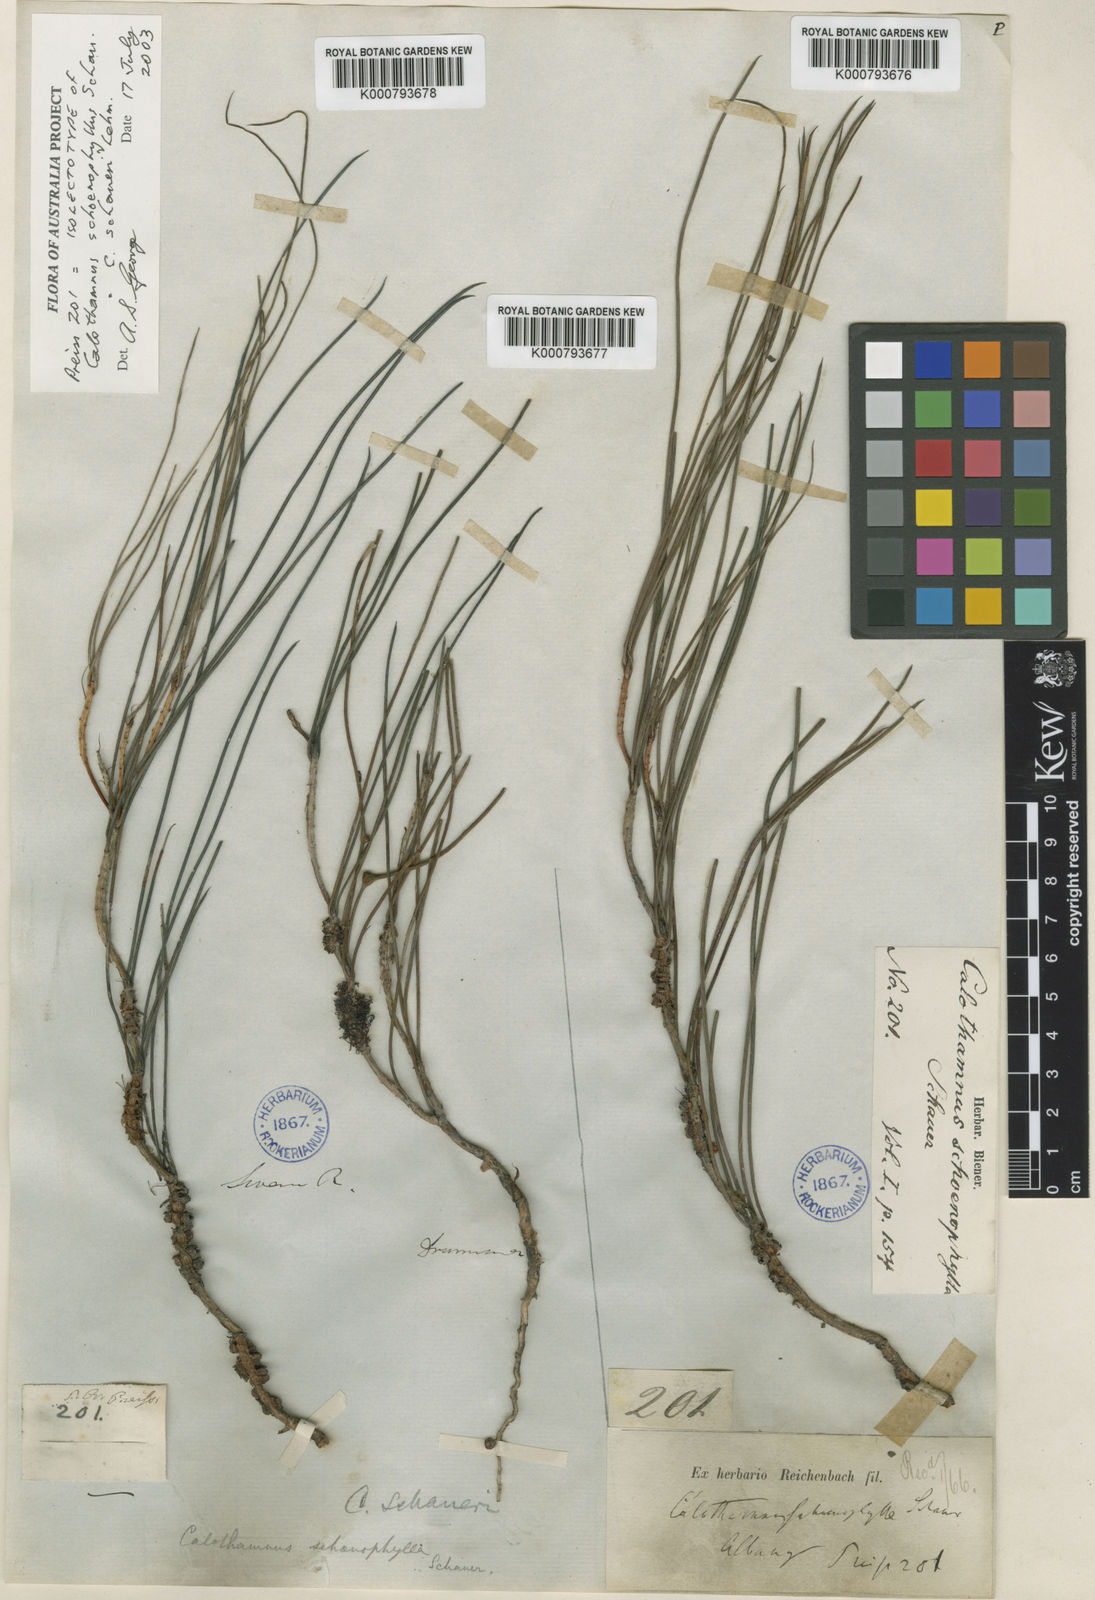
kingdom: Plantae
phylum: Tracheophyta
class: Magnoliopsida
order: Myrtales
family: Myrtaceae
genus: Melaleuca
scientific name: Melaleuca schaueri
